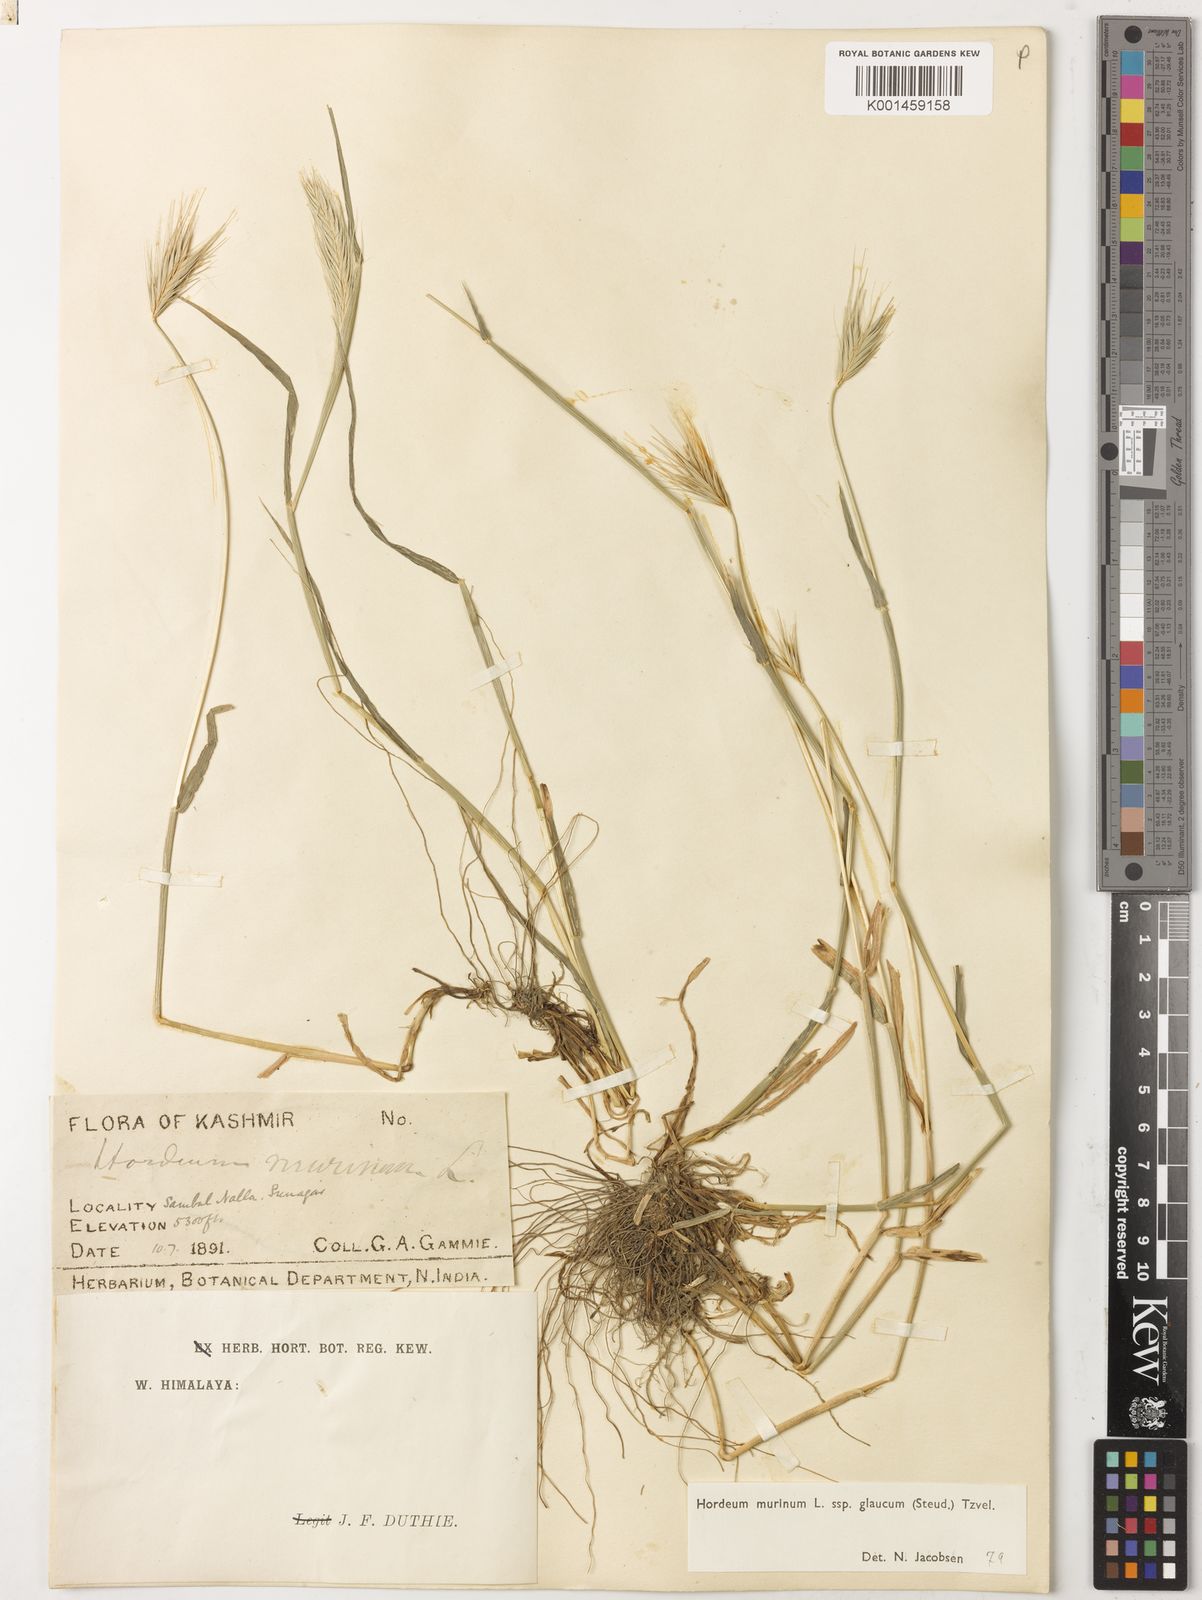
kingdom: Plantae
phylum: Tracheophyta
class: Liliopsida
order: Poales
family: Poaceae
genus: Hordeum
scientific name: Hordeum murinum
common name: Wall barley
